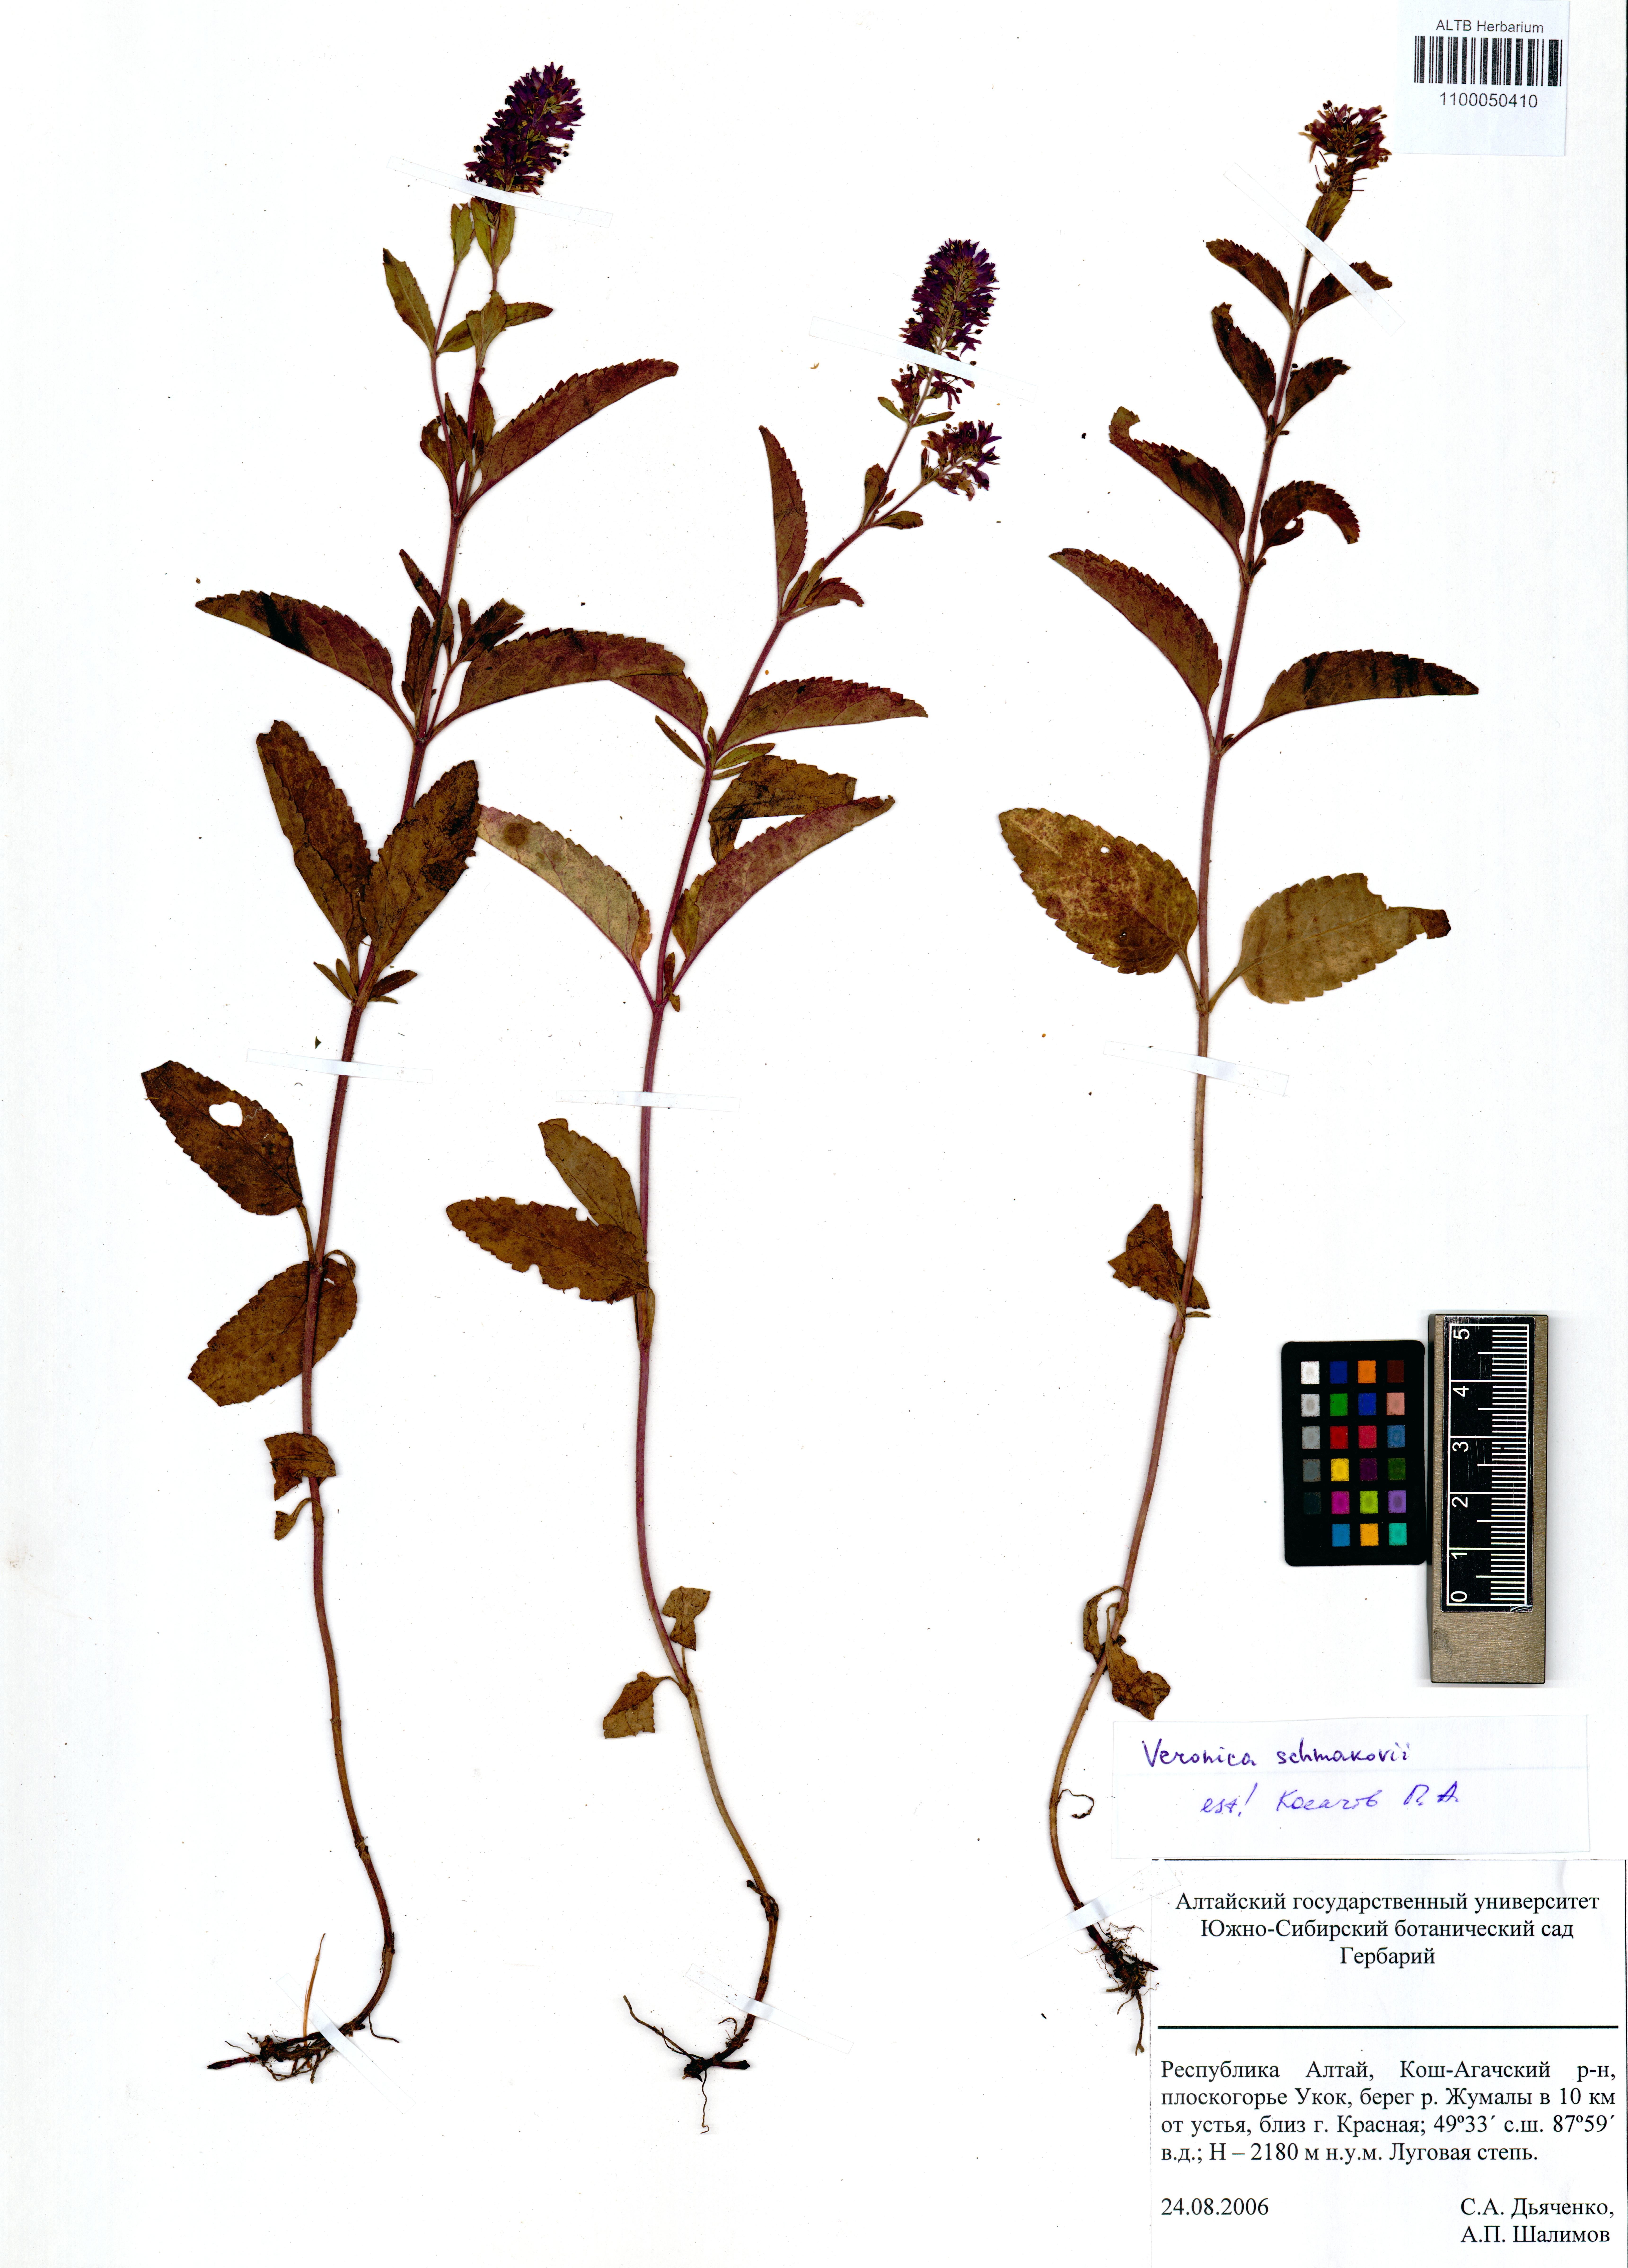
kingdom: Plantae
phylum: Tracheophyta
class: Magnoliopsida
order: Lamiales
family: Plantaginaceae
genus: Veronica
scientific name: Veronica schmakovii
